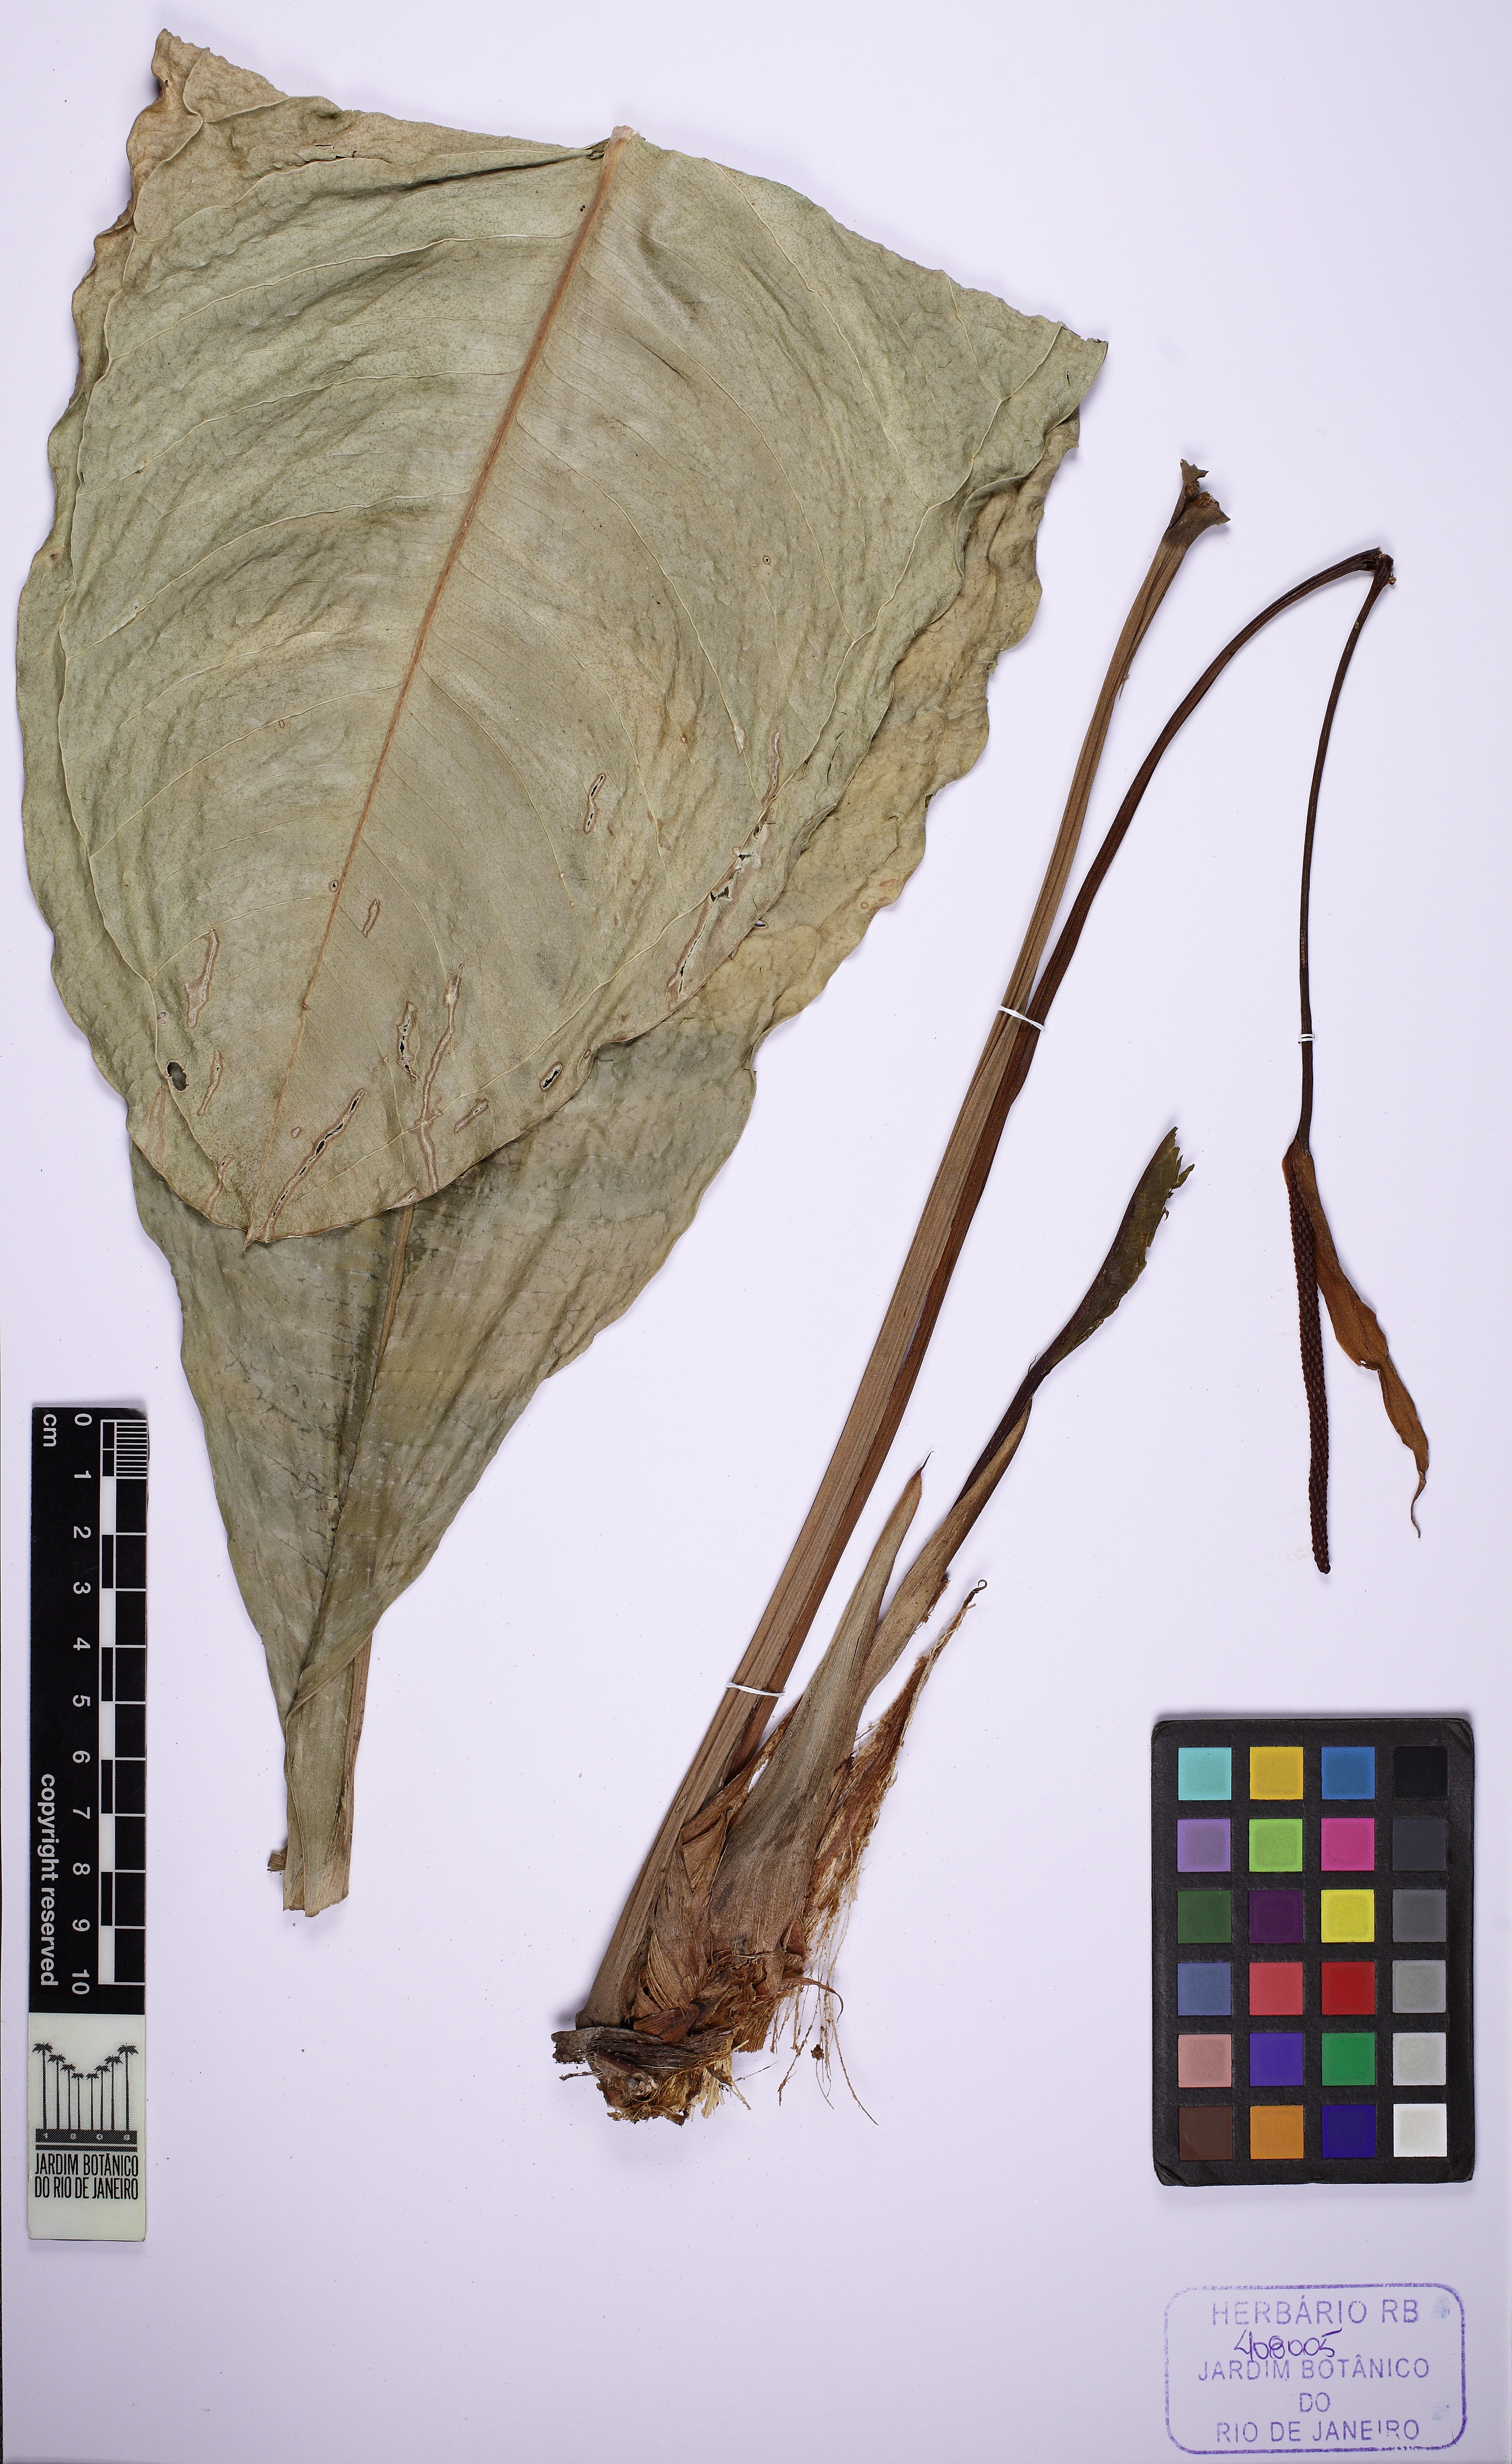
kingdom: Plantae
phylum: Tracheophyta
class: Liliopsida
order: Alismatales
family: Araceae
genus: Anthurium
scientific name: Anthurium intermedium
